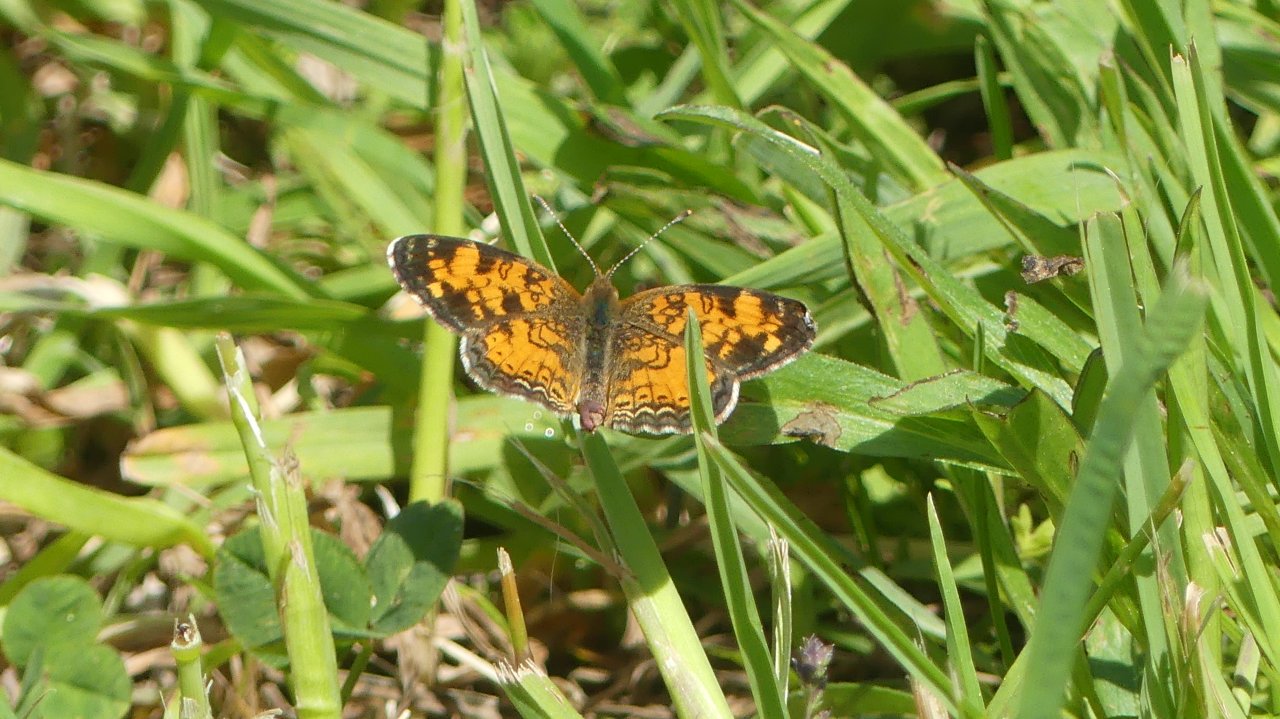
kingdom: Animalia
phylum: Arthropoda
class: Insecta
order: Lepidoptera
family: Nymphalidae
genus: Phyciodes
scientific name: Phyciodes tharos
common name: Pearl Crescent
